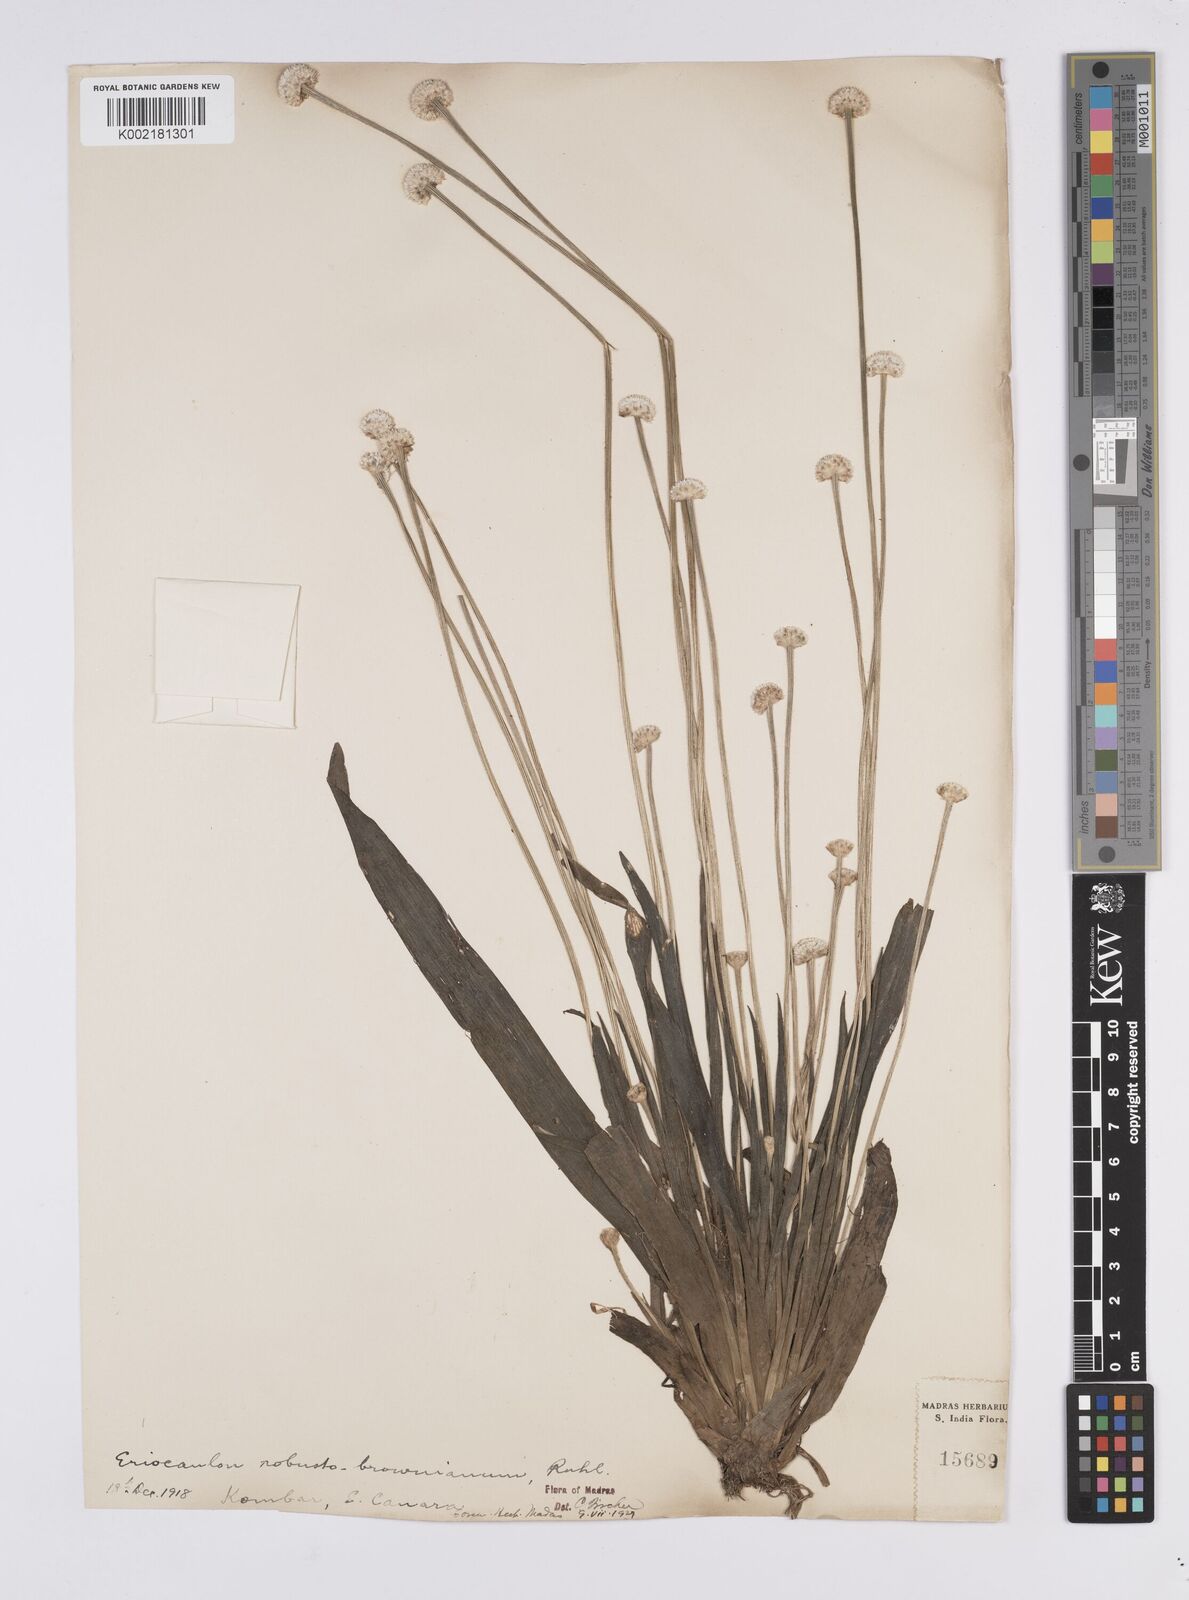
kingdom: Plantae
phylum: Tracheophyta
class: Liliopsida
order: Poales
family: Eriocaulaceae
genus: Eriocaulon
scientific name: Eriocaulon robustobrownianum
